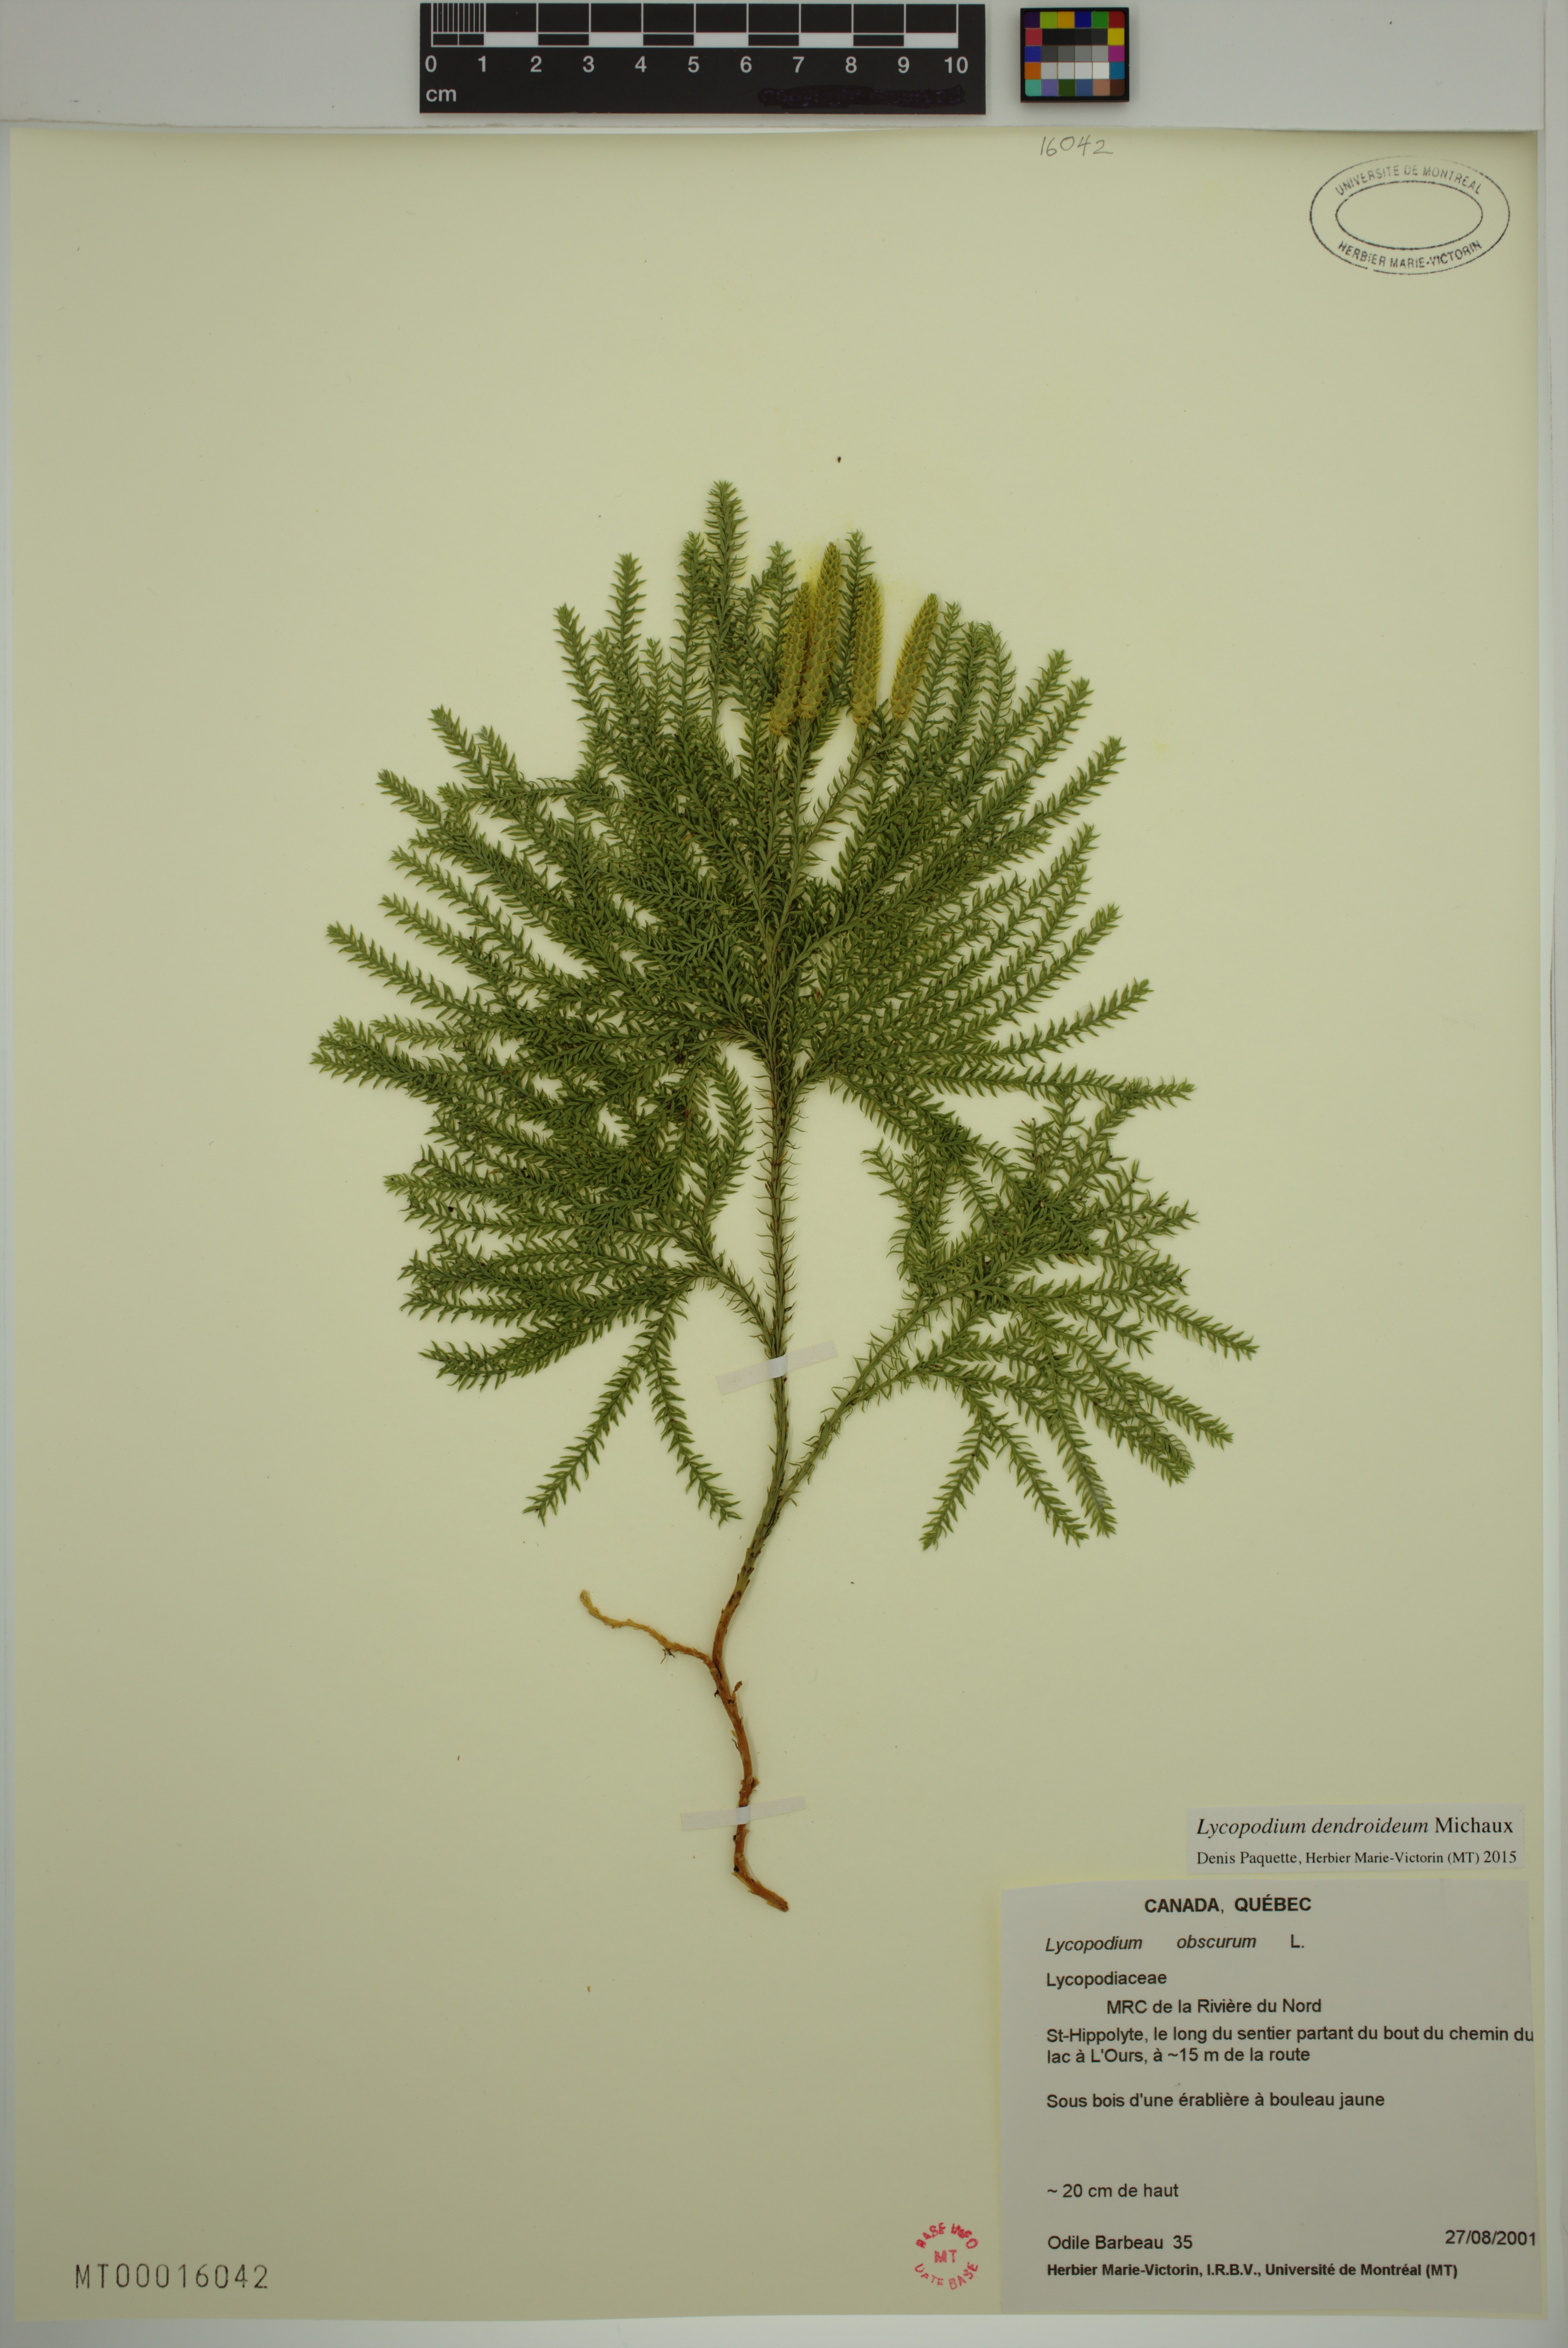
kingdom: Plantae
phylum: Tracheophyta
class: Lycopodiopsida
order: Lycopodiales
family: Lycopodiaceae
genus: Dendrolycopodium
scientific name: Dendrolycopodium dendroideum
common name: Northern tree-clubmoss
